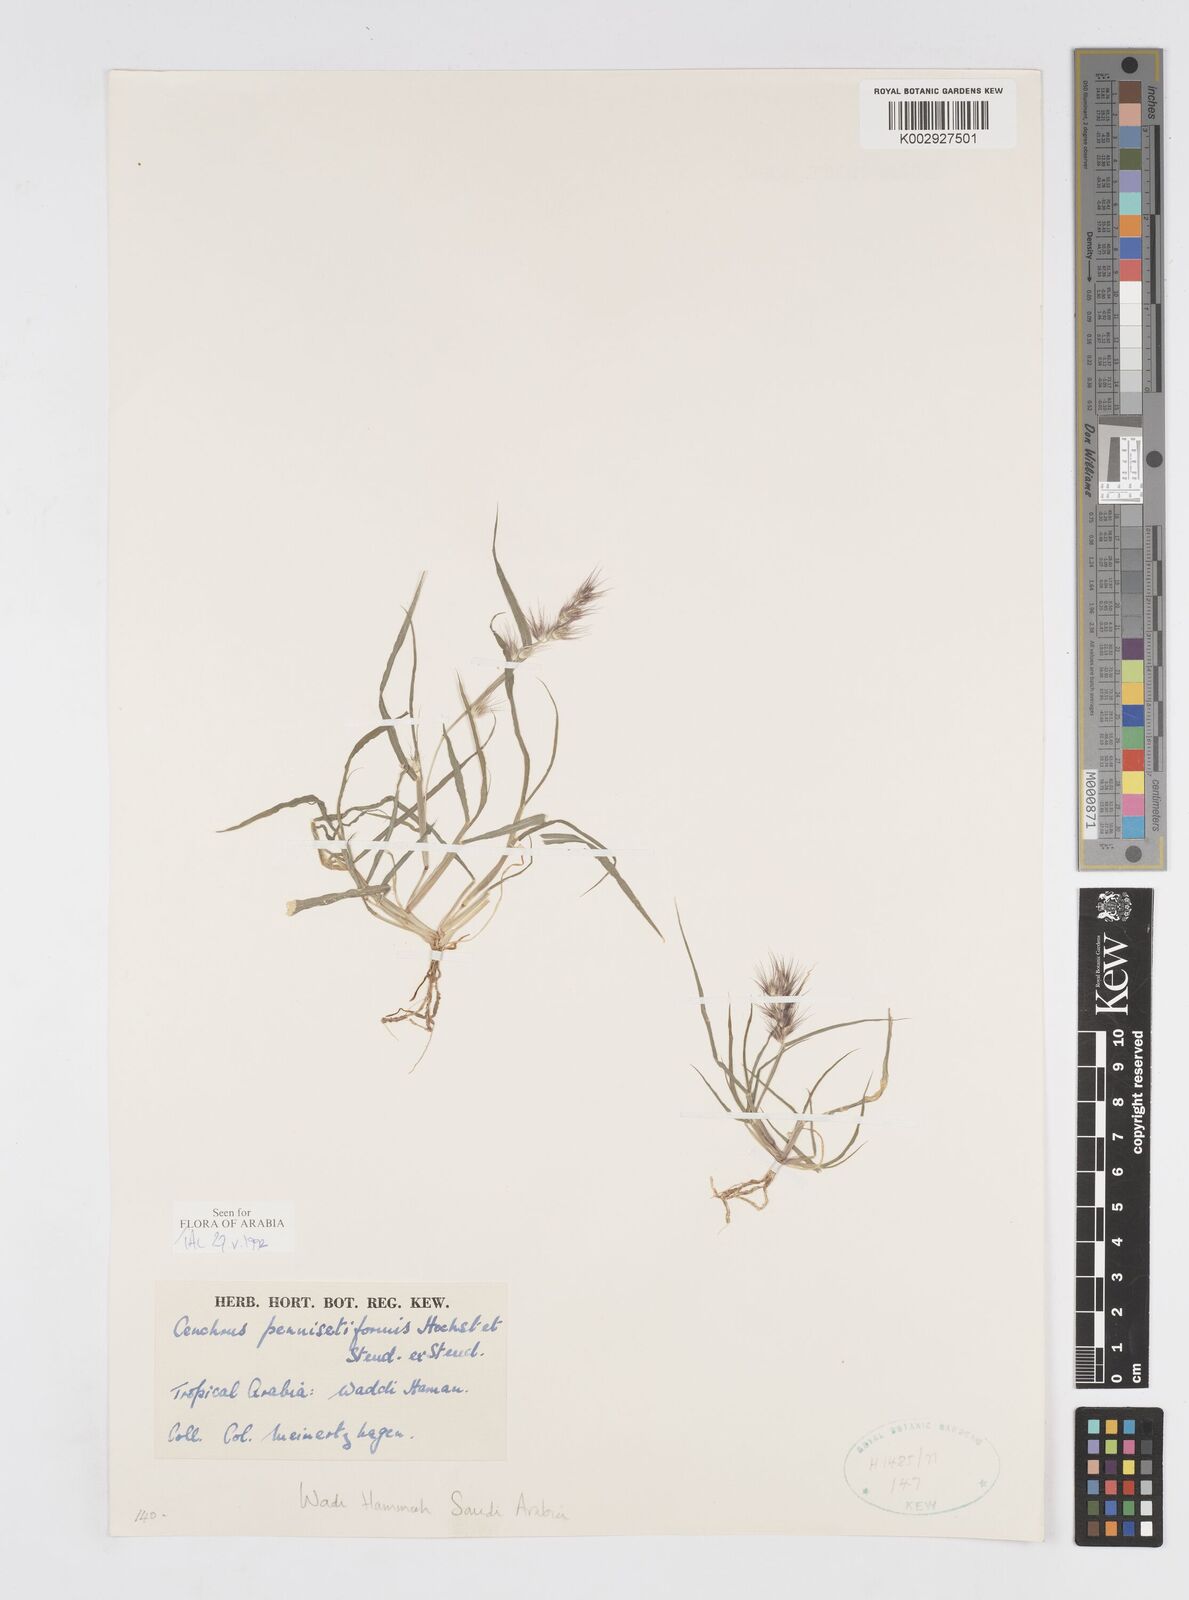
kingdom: Plantae
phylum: Tracheophyta
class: Liliopsida
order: Poales
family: Poaceae
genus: Cenchrus
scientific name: Cenchrus pennisetiformis
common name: Cloncurry
